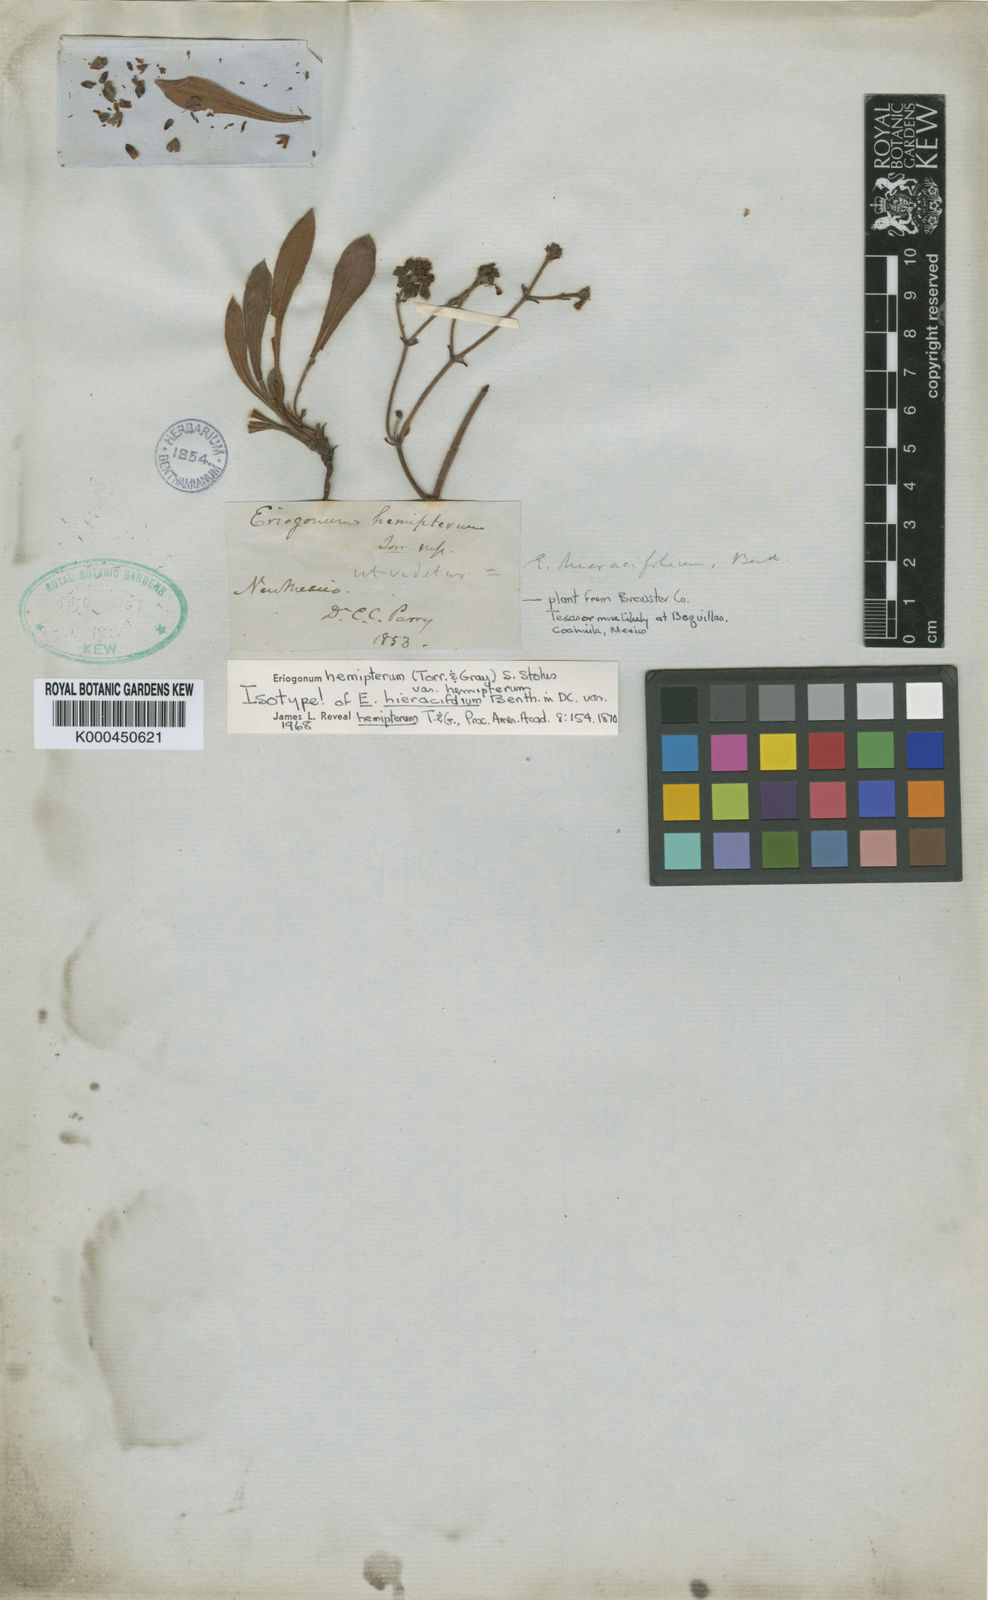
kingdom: Plantae
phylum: Tracheophyta
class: Magnoliopsida
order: Caryophyllales
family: Polygonaceae
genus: Eriogonum
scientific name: Eriogonum alatum
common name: Winged eriogonum
